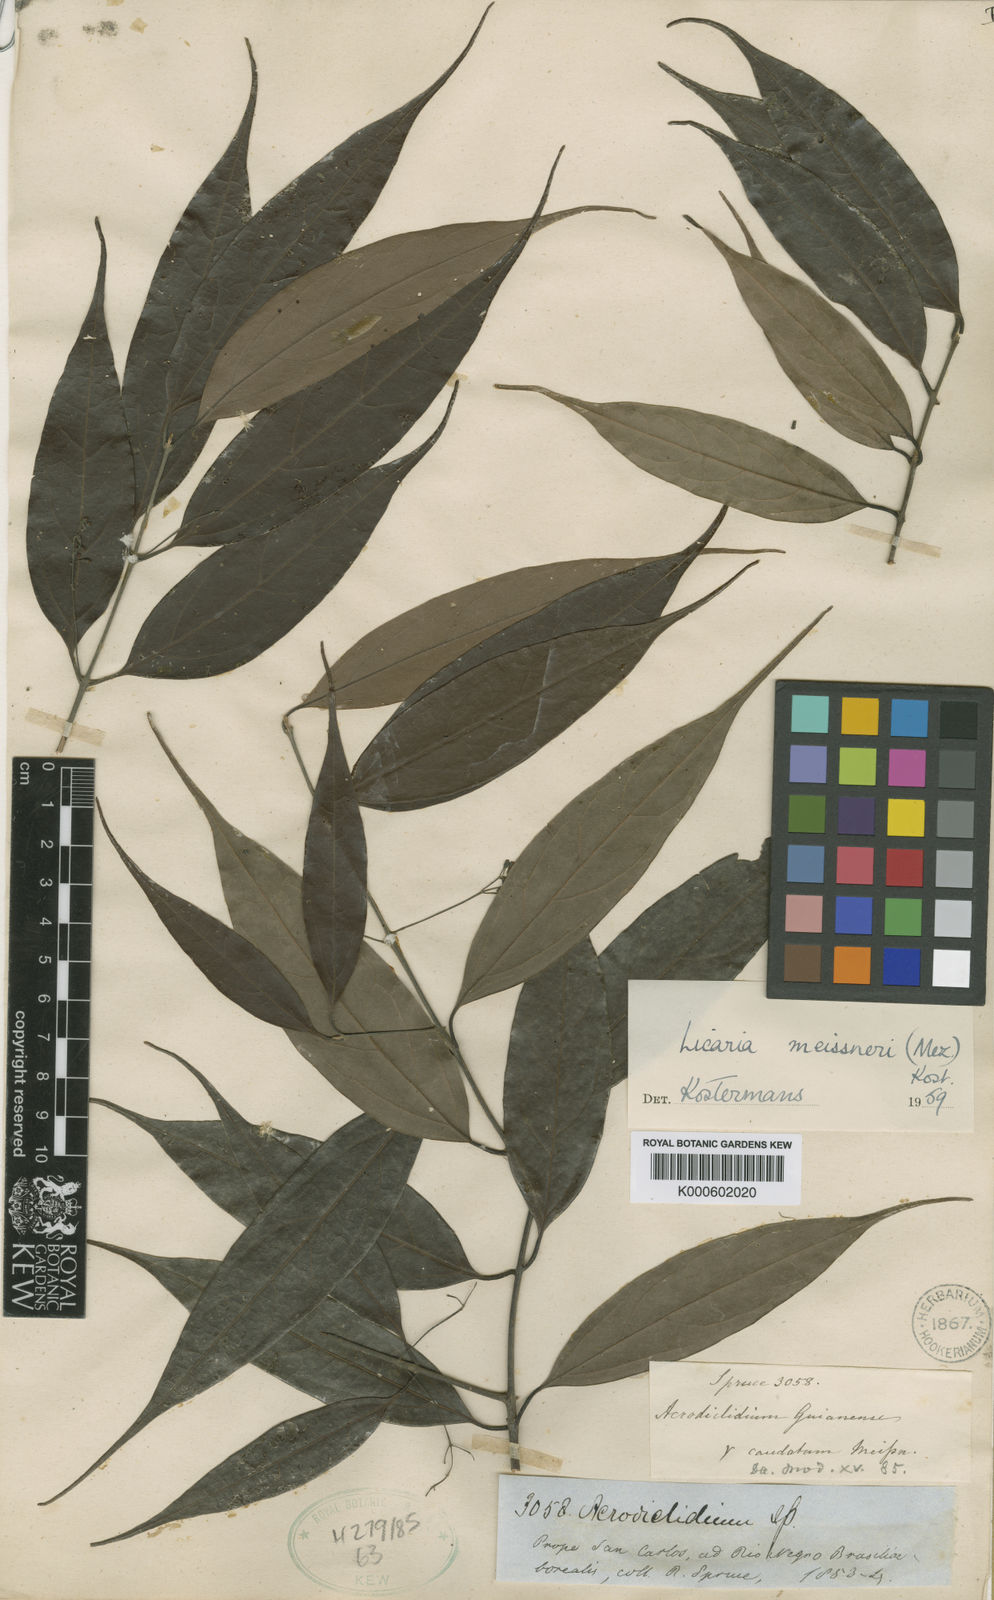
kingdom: Plantae
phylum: Tracheophyta
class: Magnoliopsida
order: Laurales
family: Lauraceae
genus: Licaria
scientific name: Licaria polyphylla
